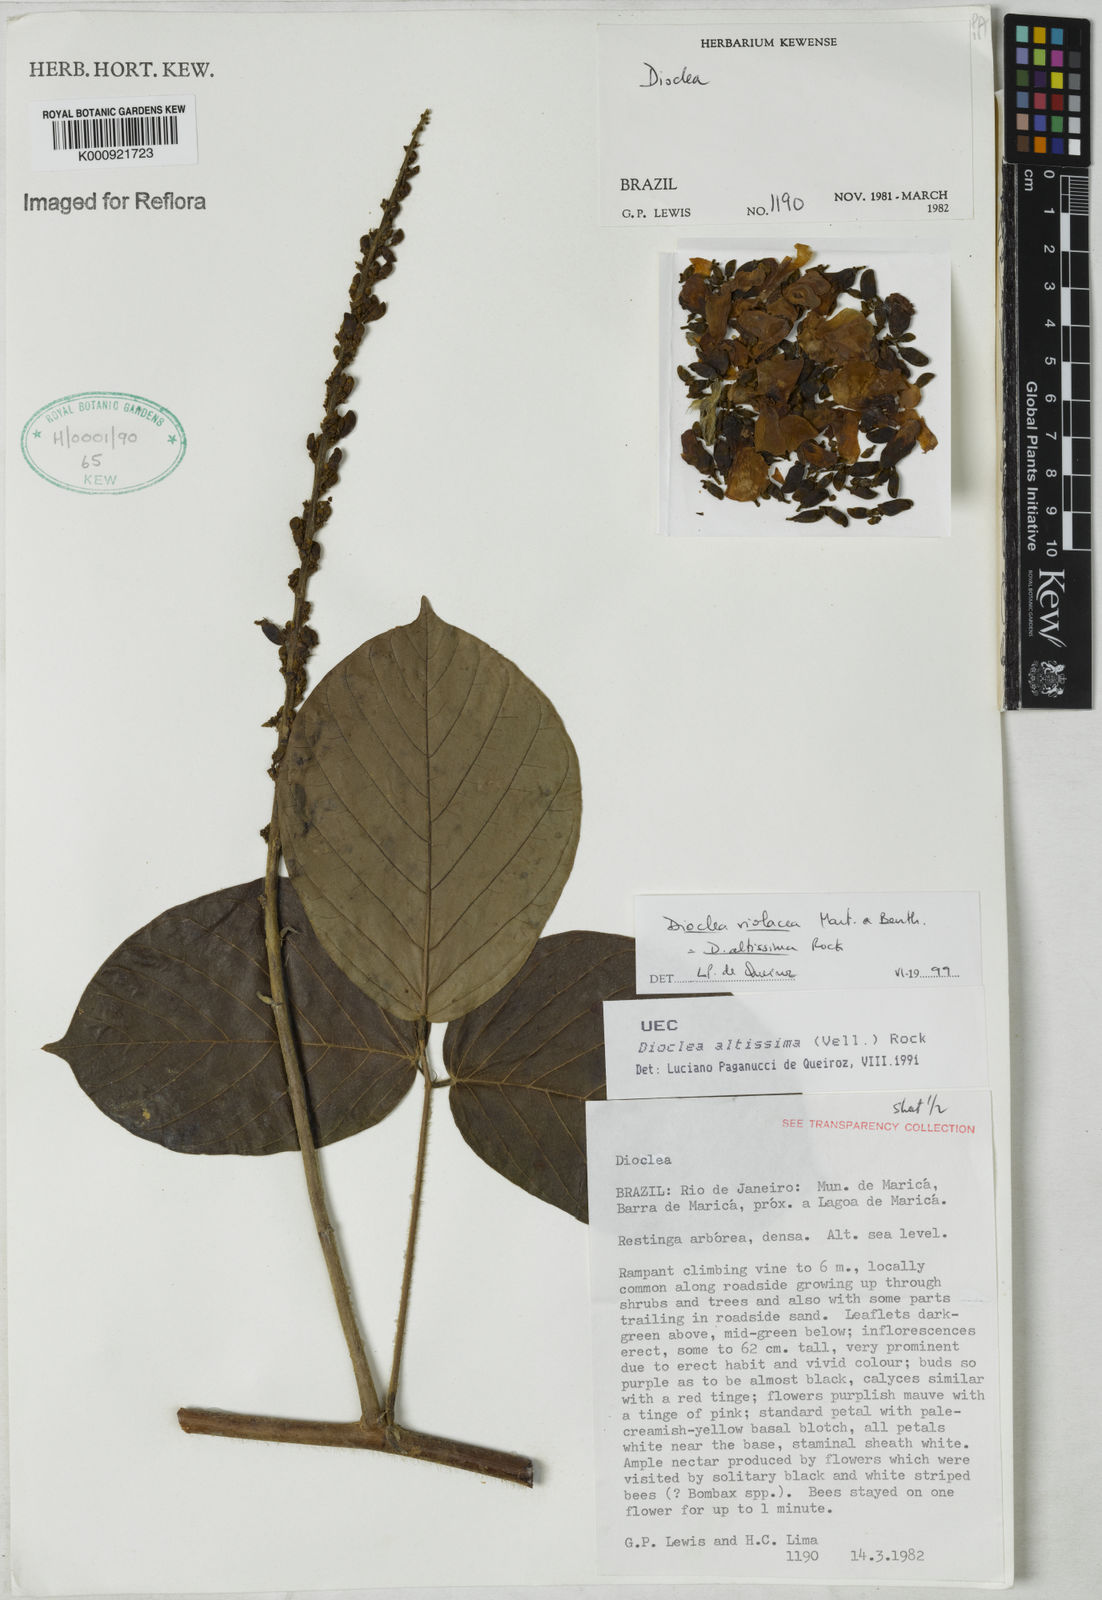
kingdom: Plantae
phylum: Tracheophyta
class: Magnoliopsida
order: Fabales
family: Fabaceae
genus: Macropsychanthus
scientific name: Macropsychanthus violaceus
